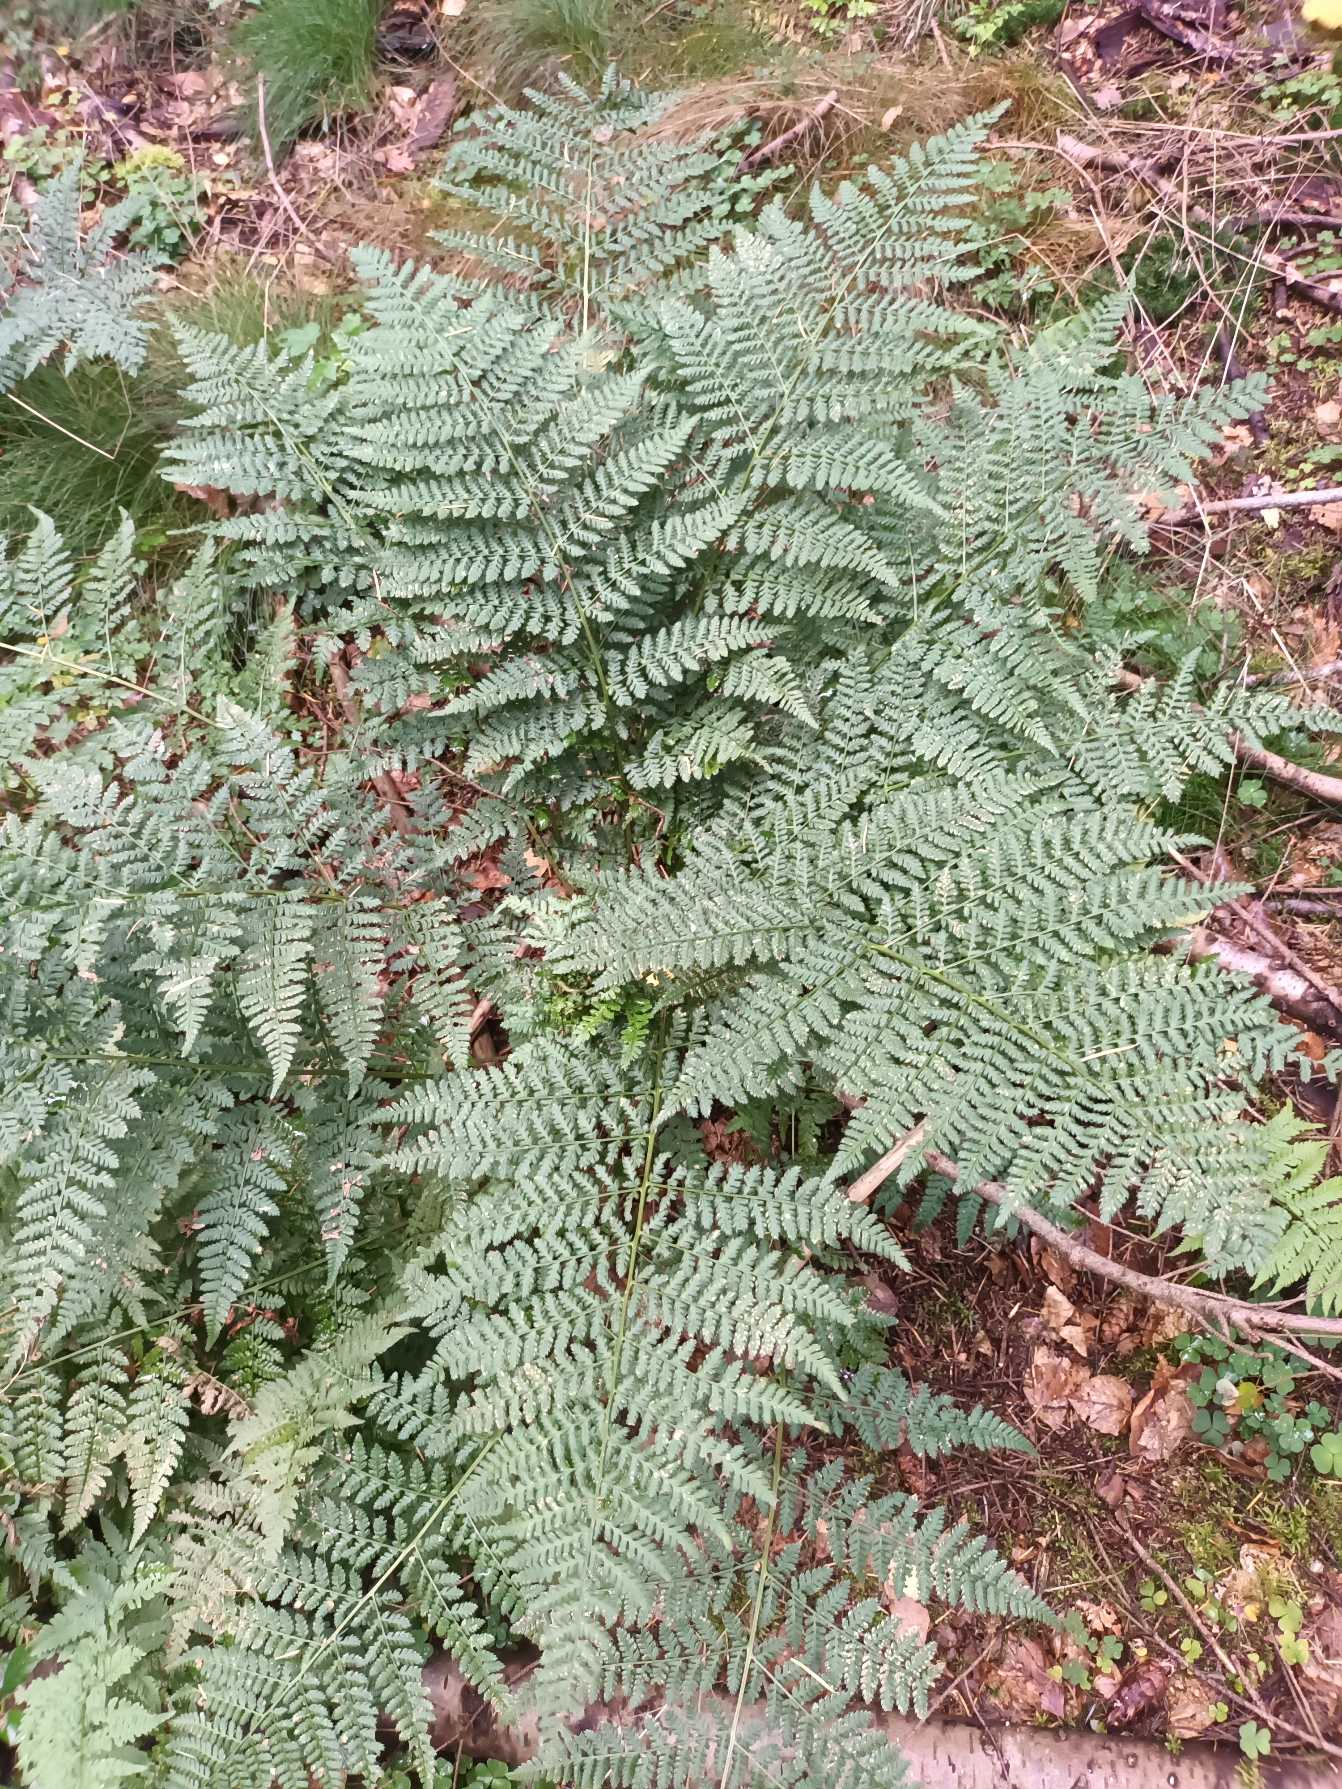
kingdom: Plantae
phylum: Tracheophyta
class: Polypodiopsida
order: Polypodiales
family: Dryopteridaceae
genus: Dryopteris
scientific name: Dryopteris dilatata
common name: Bredbladet mangeløv
